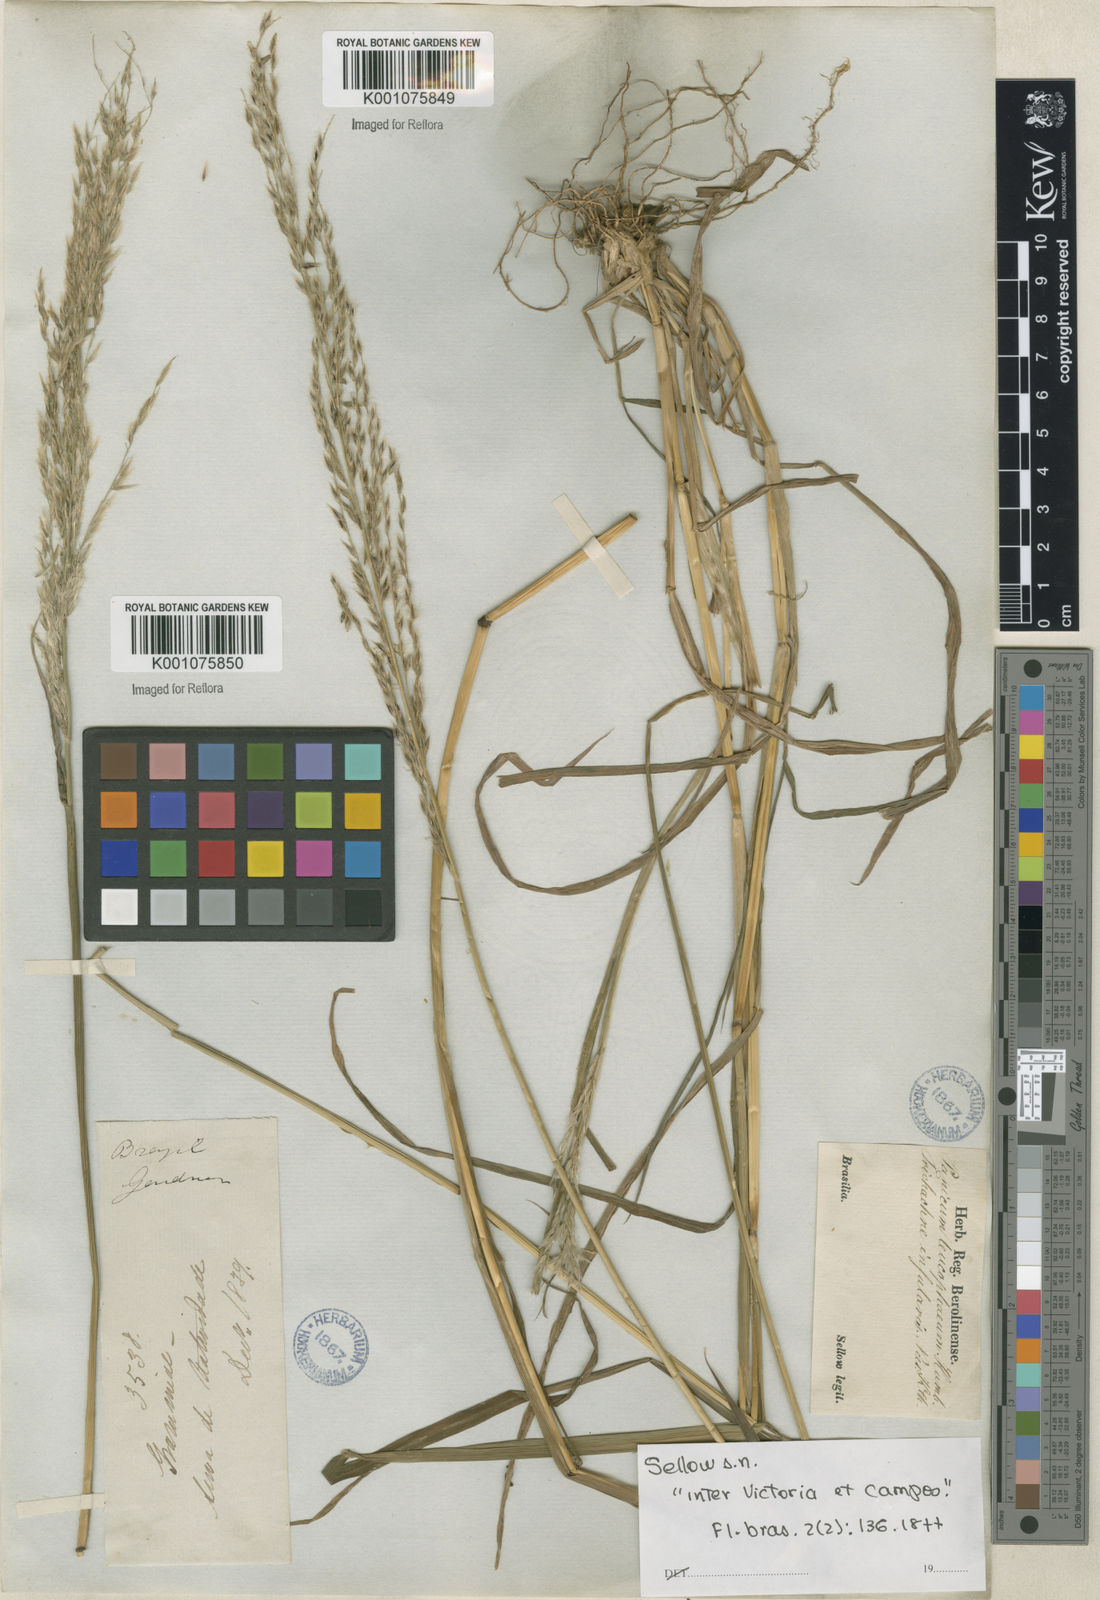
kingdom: Plantae
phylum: Tracheophyta
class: Liliopsida
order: Poales
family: Poaceae
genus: Digitaria
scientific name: Digitaria
